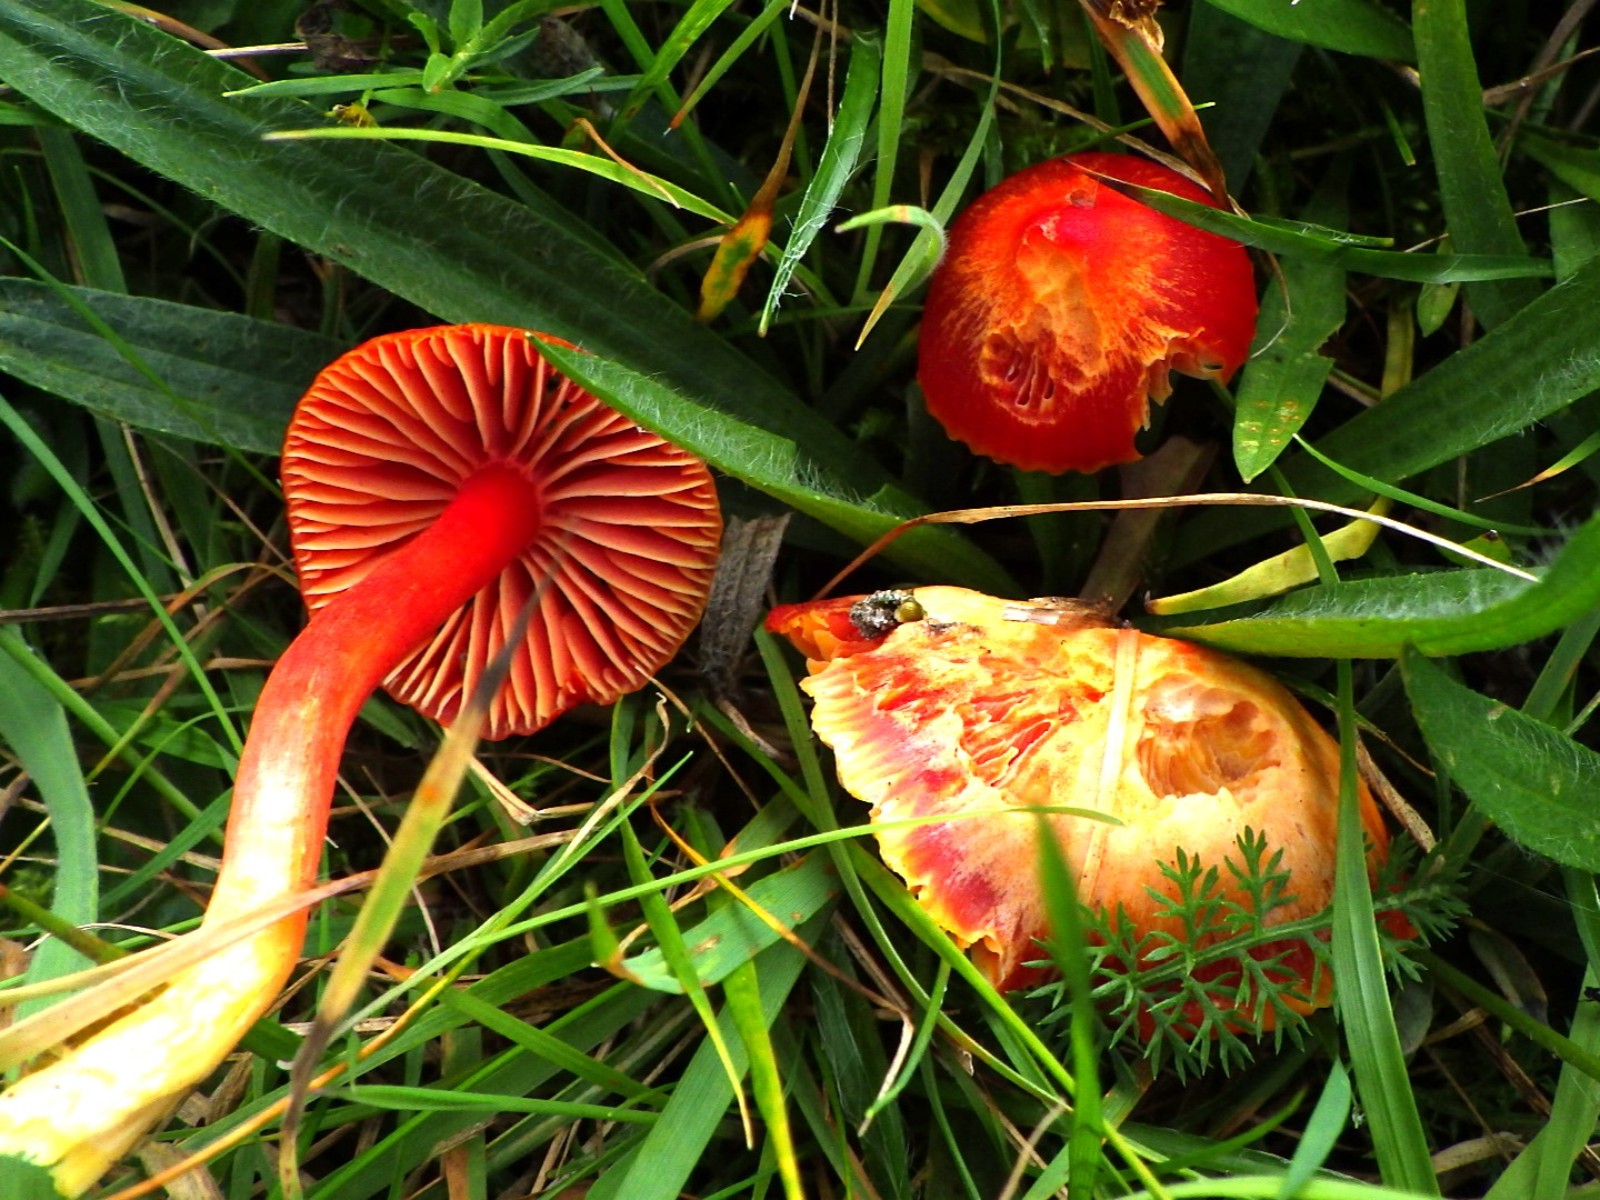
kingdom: Fungi
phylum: Basidiomycota
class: Agaricomycetes
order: Agaricales
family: Hygrophoraceae
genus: Hygrocybe
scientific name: Hygrocybe coccinea
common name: cinnober-vokshat
